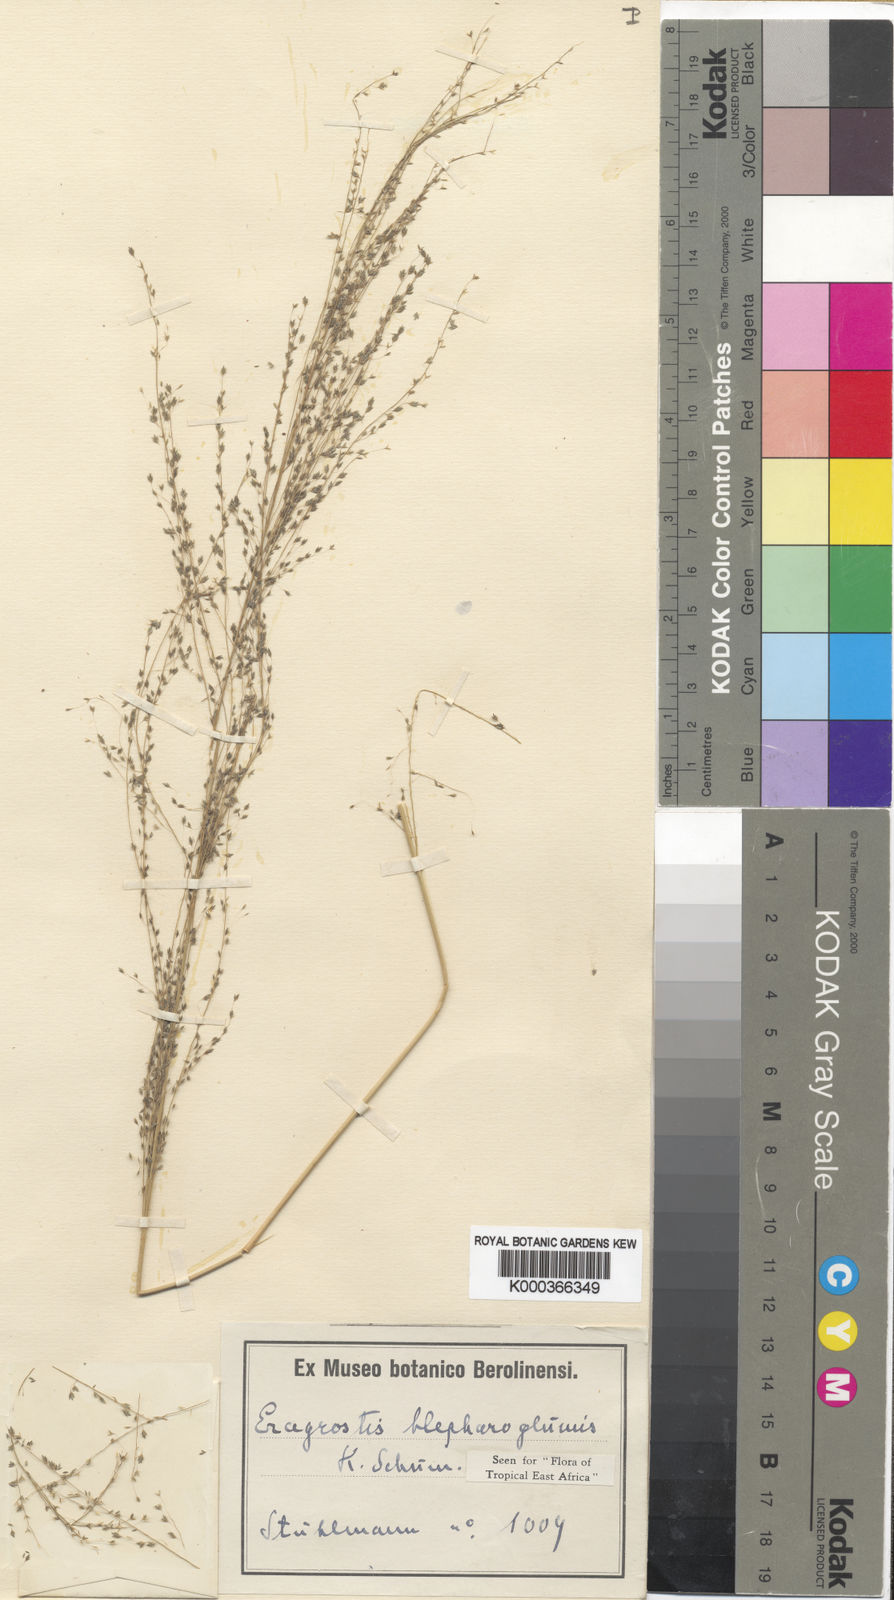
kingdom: Plantae
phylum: Tracheophyta
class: Liliopsida
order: Poales
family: Poaceae
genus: Eragrostis
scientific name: Eragrostis olivacea
